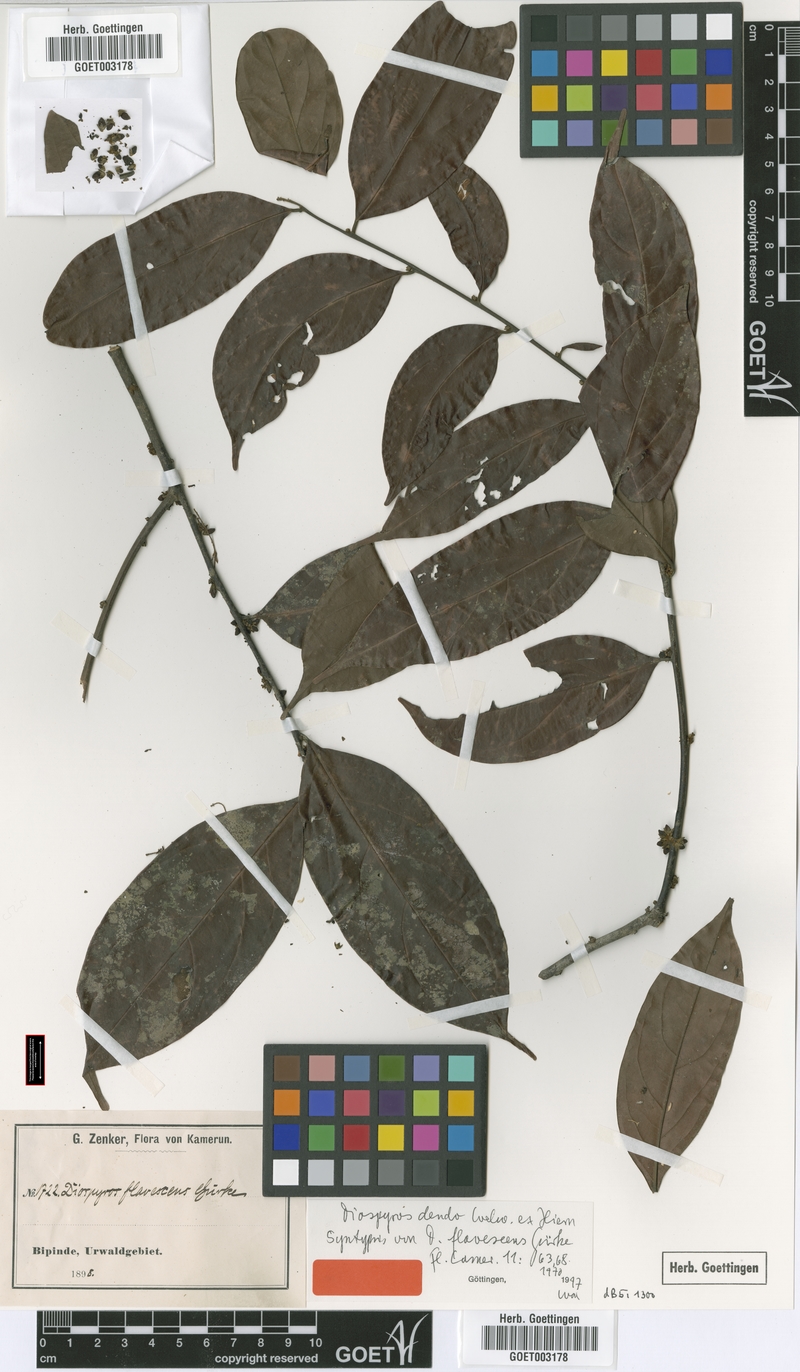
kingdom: Plantae
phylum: Tracheophyta
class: Magnoliopsida
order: Ericales
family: Ebenaceae
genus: Diospyros
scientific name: Diospyros dendo
